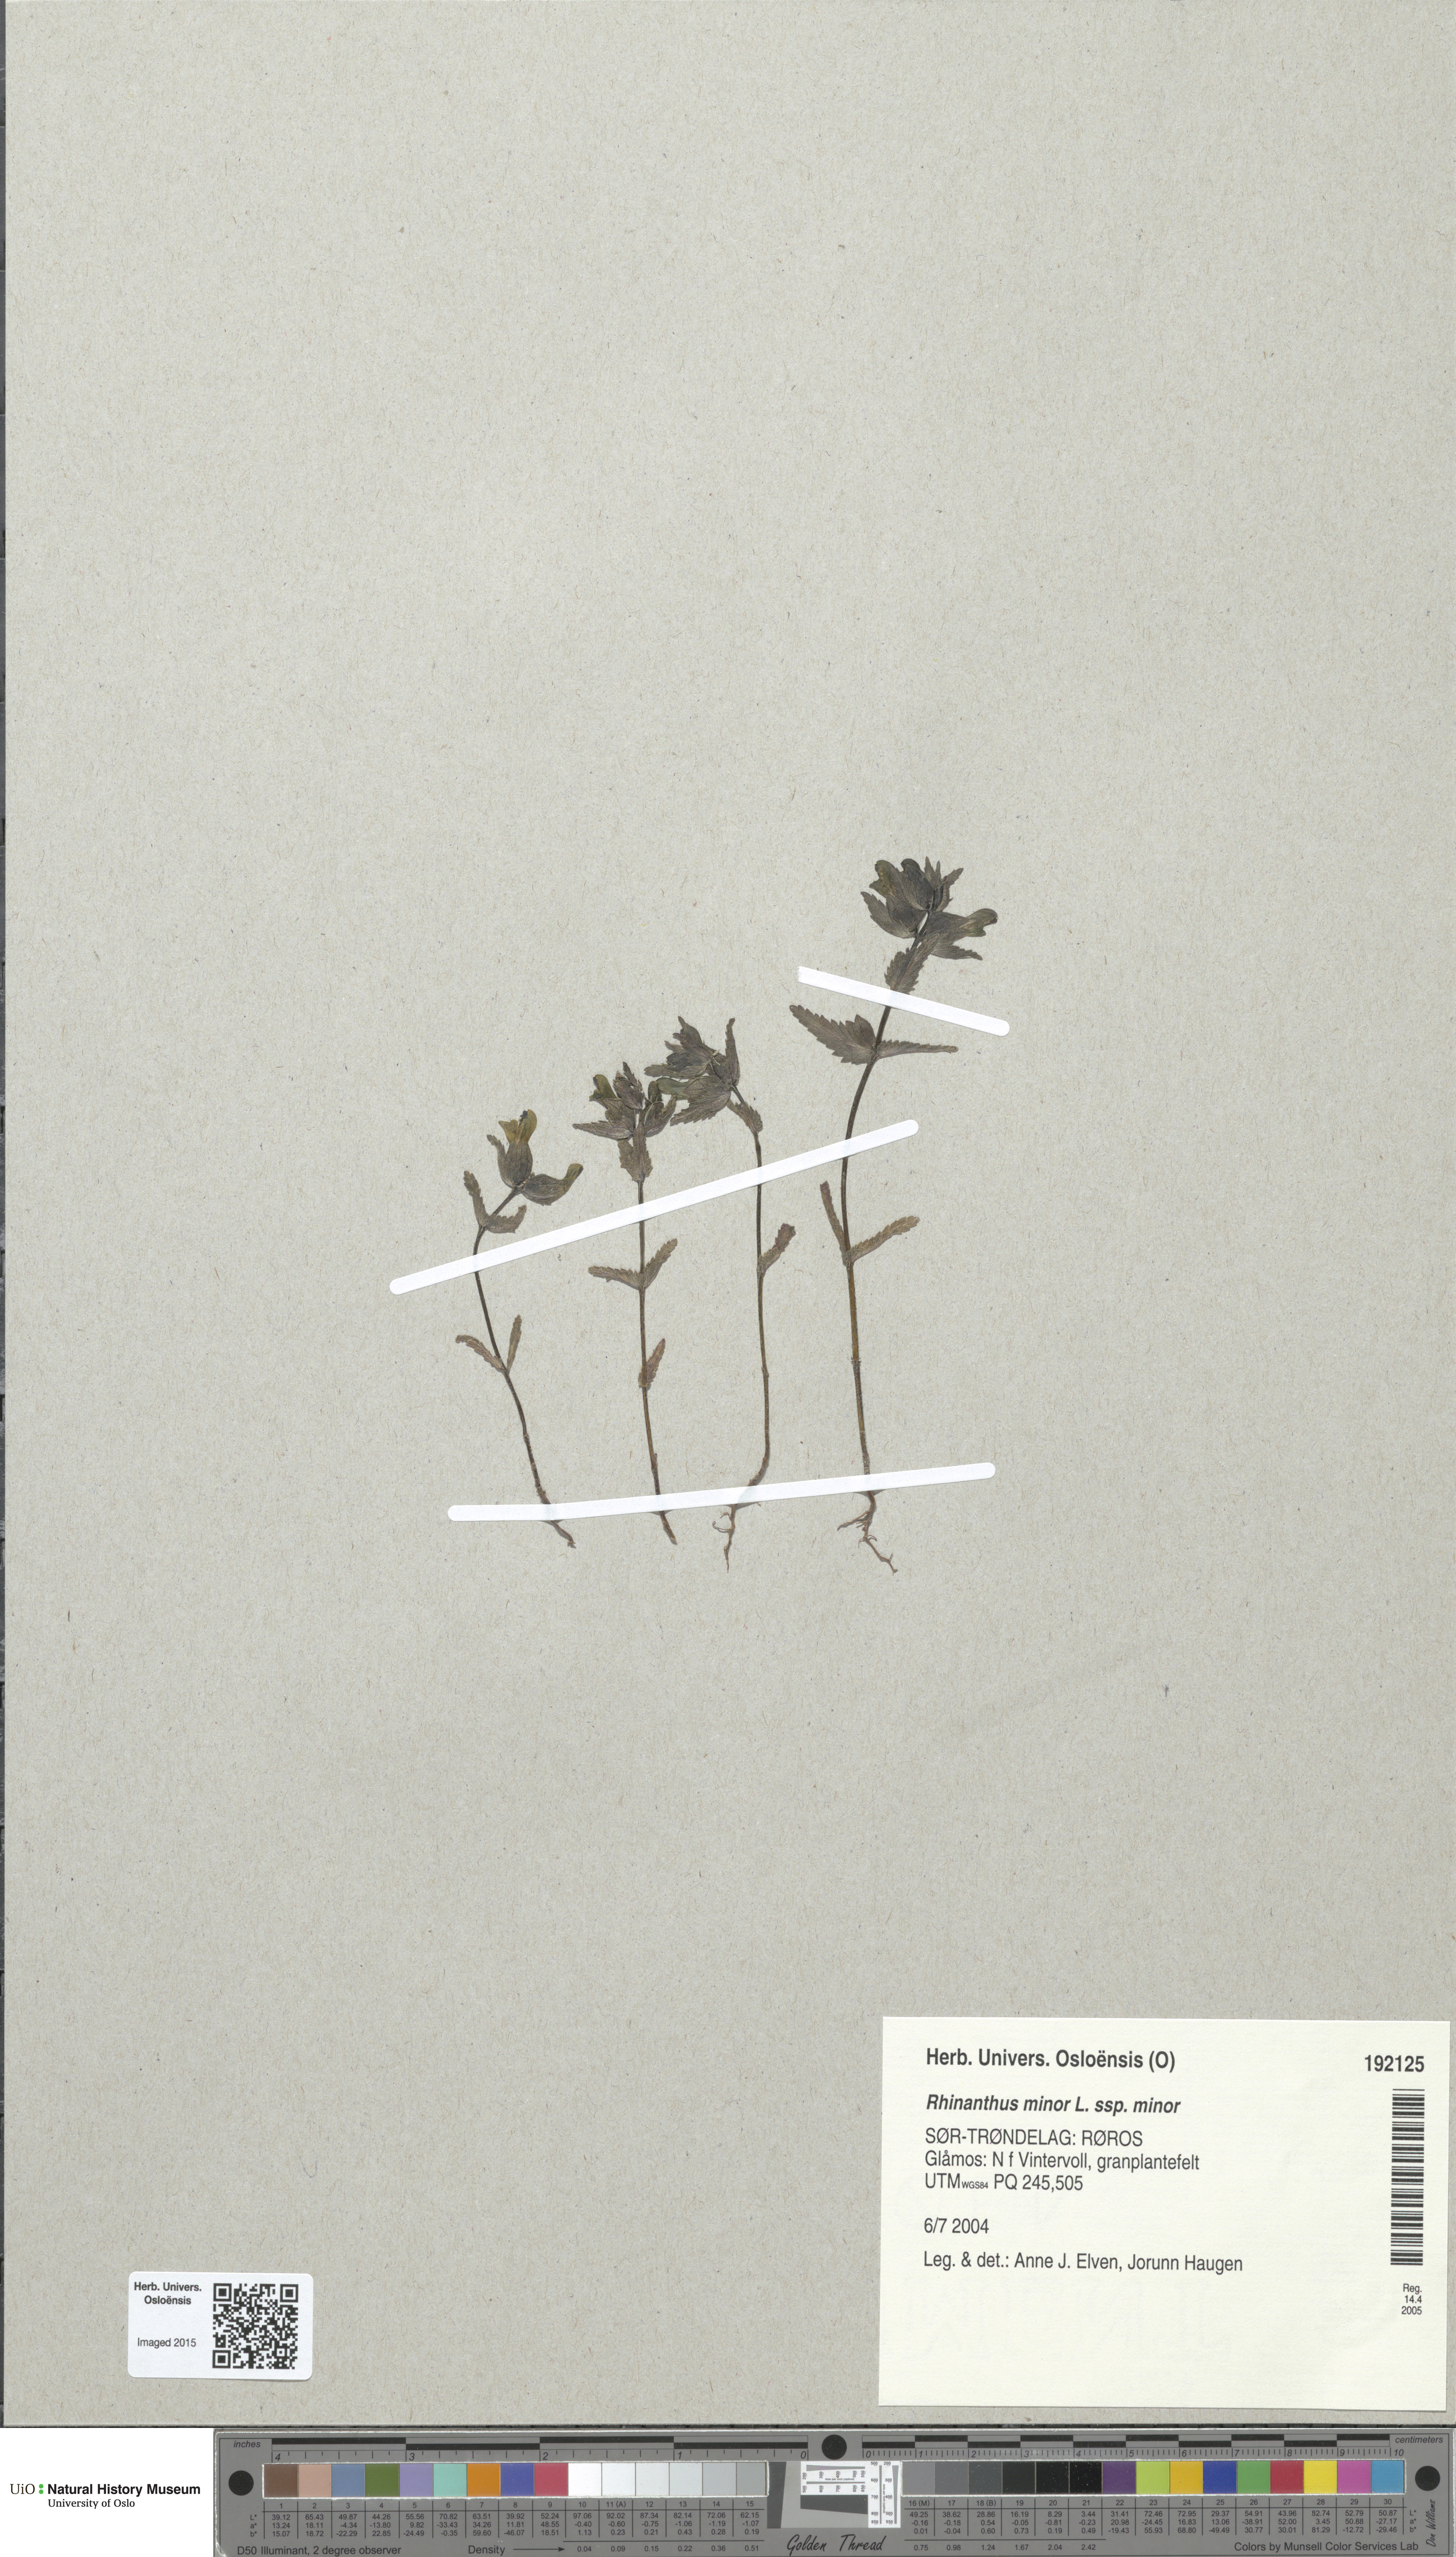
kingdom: Plantae
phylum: Tracheophyta
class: Magnoliopsida
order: Lamiales
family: Orobanchaceae
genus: Rhinanthus
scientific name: Rhinanthus minor
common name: Yellow-rattle
